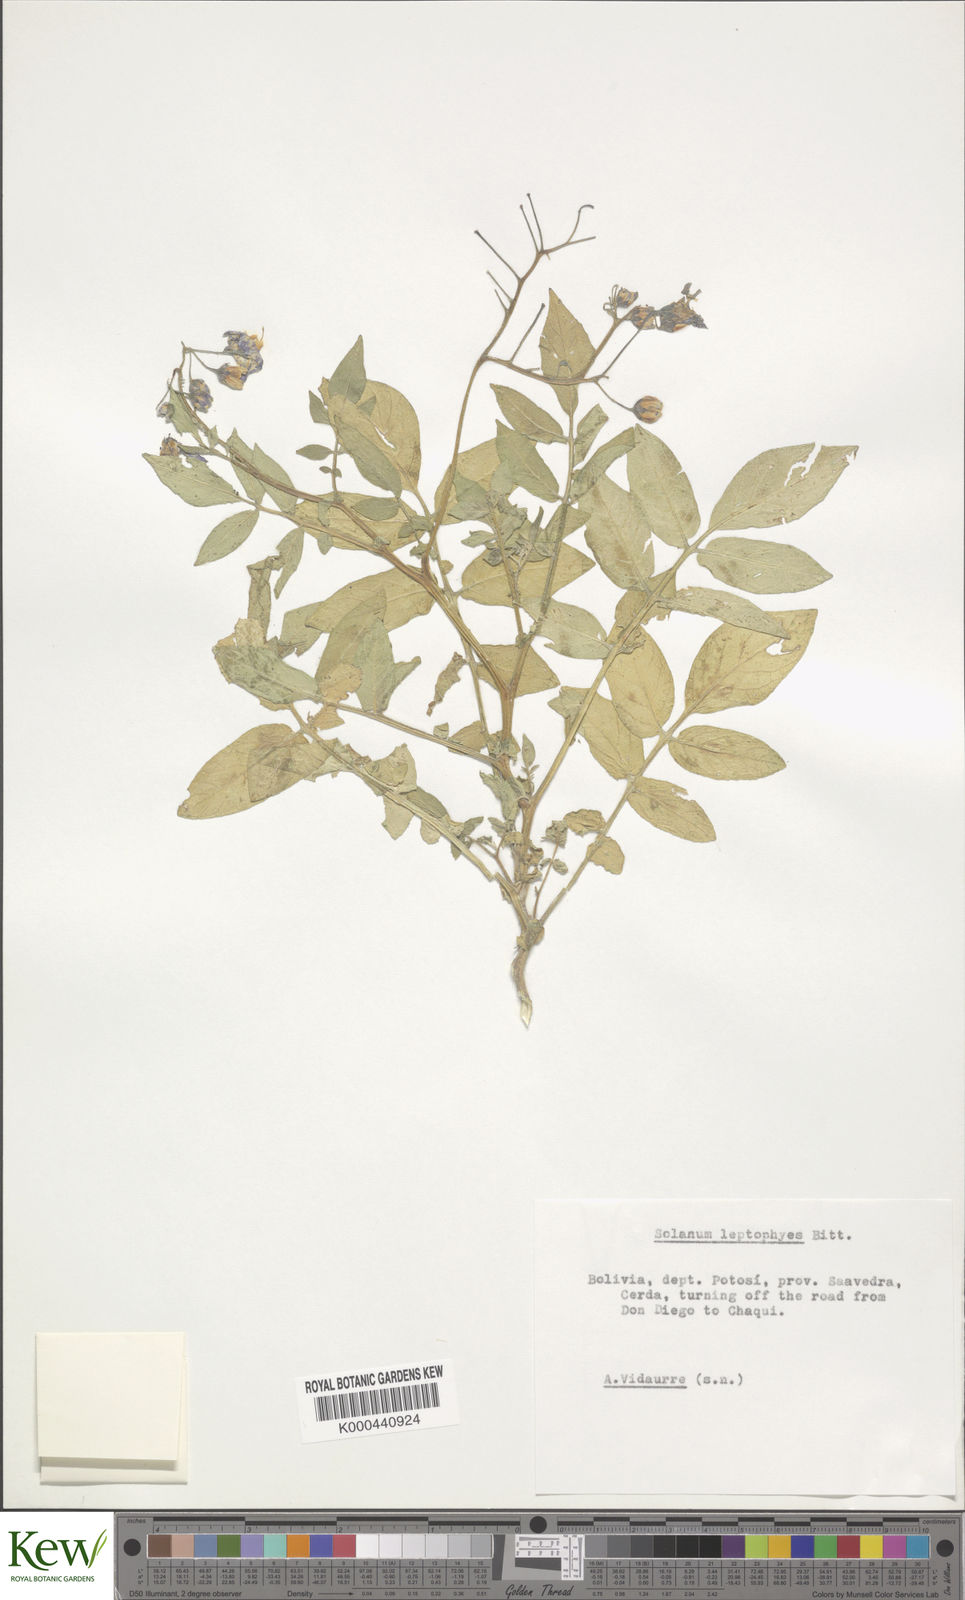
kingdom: Plantae
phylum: Tracheophyta
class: Magnoliopsida
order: Solanales
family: Solanaceae
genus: Solanum
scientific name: Solanum brevicaule
